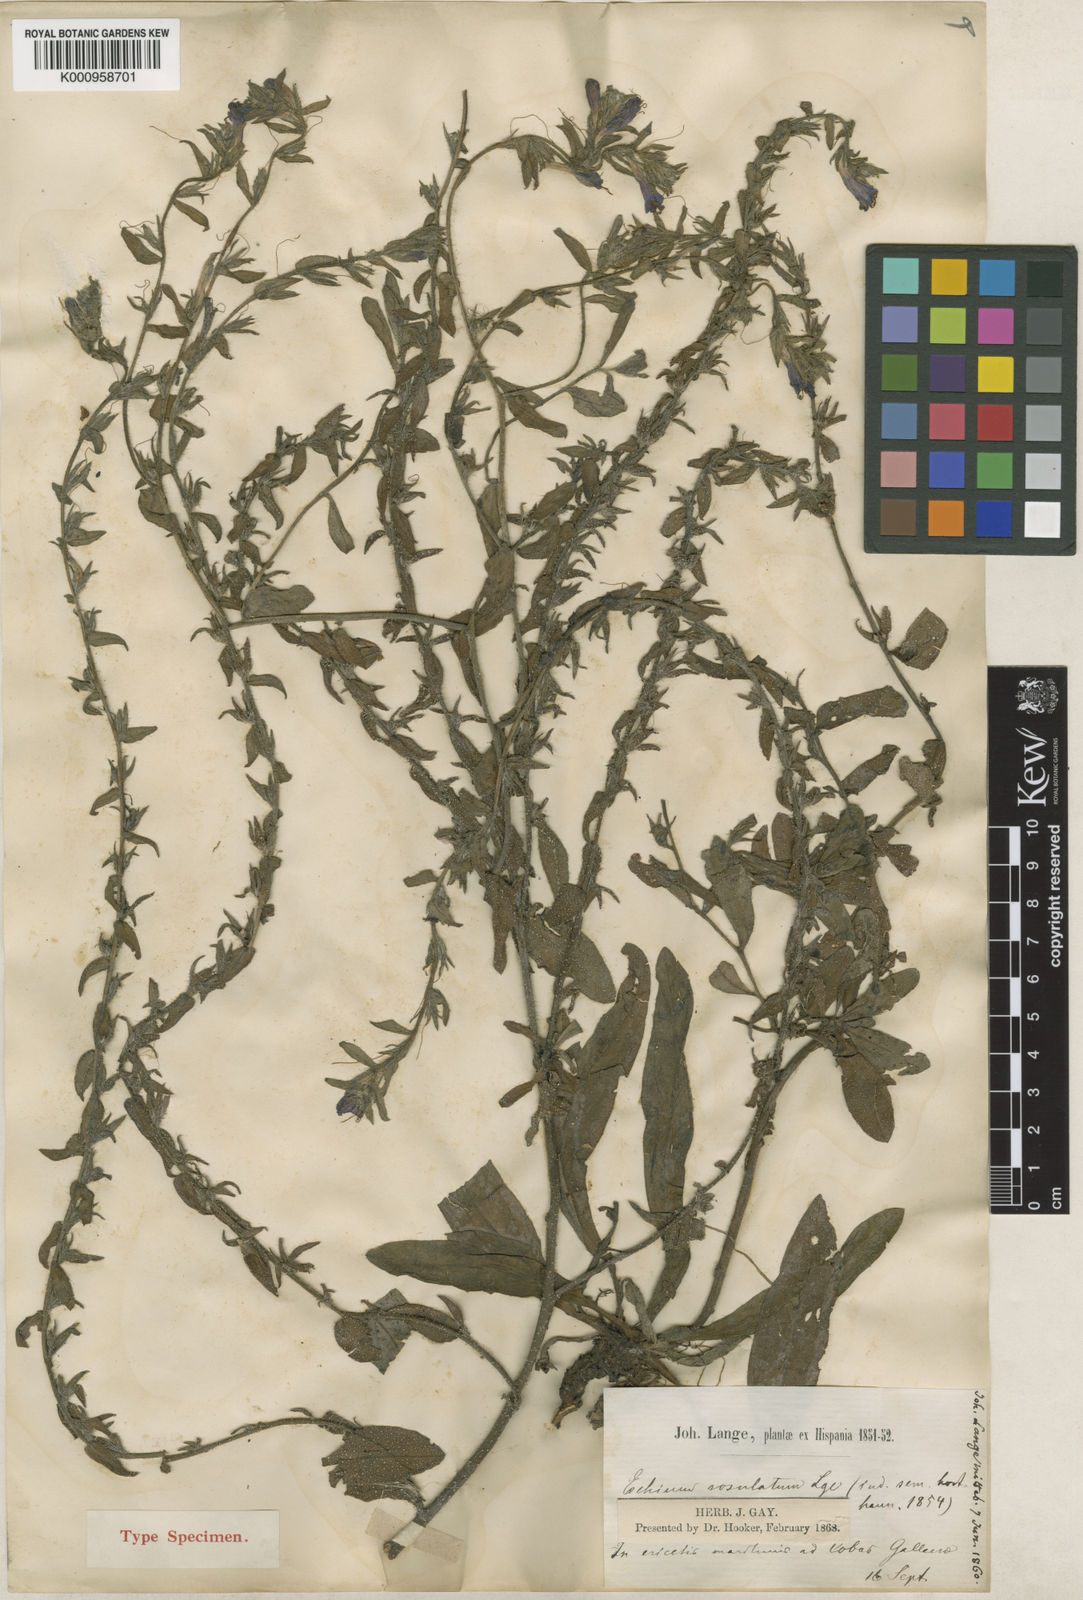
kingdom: Plantae
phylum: Tracheophyta
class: Magnoliopsida
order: Boraginales
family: Boraginaceae
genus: Echium
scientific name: Echium rosulatum
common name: Lax viper's-bugloss
